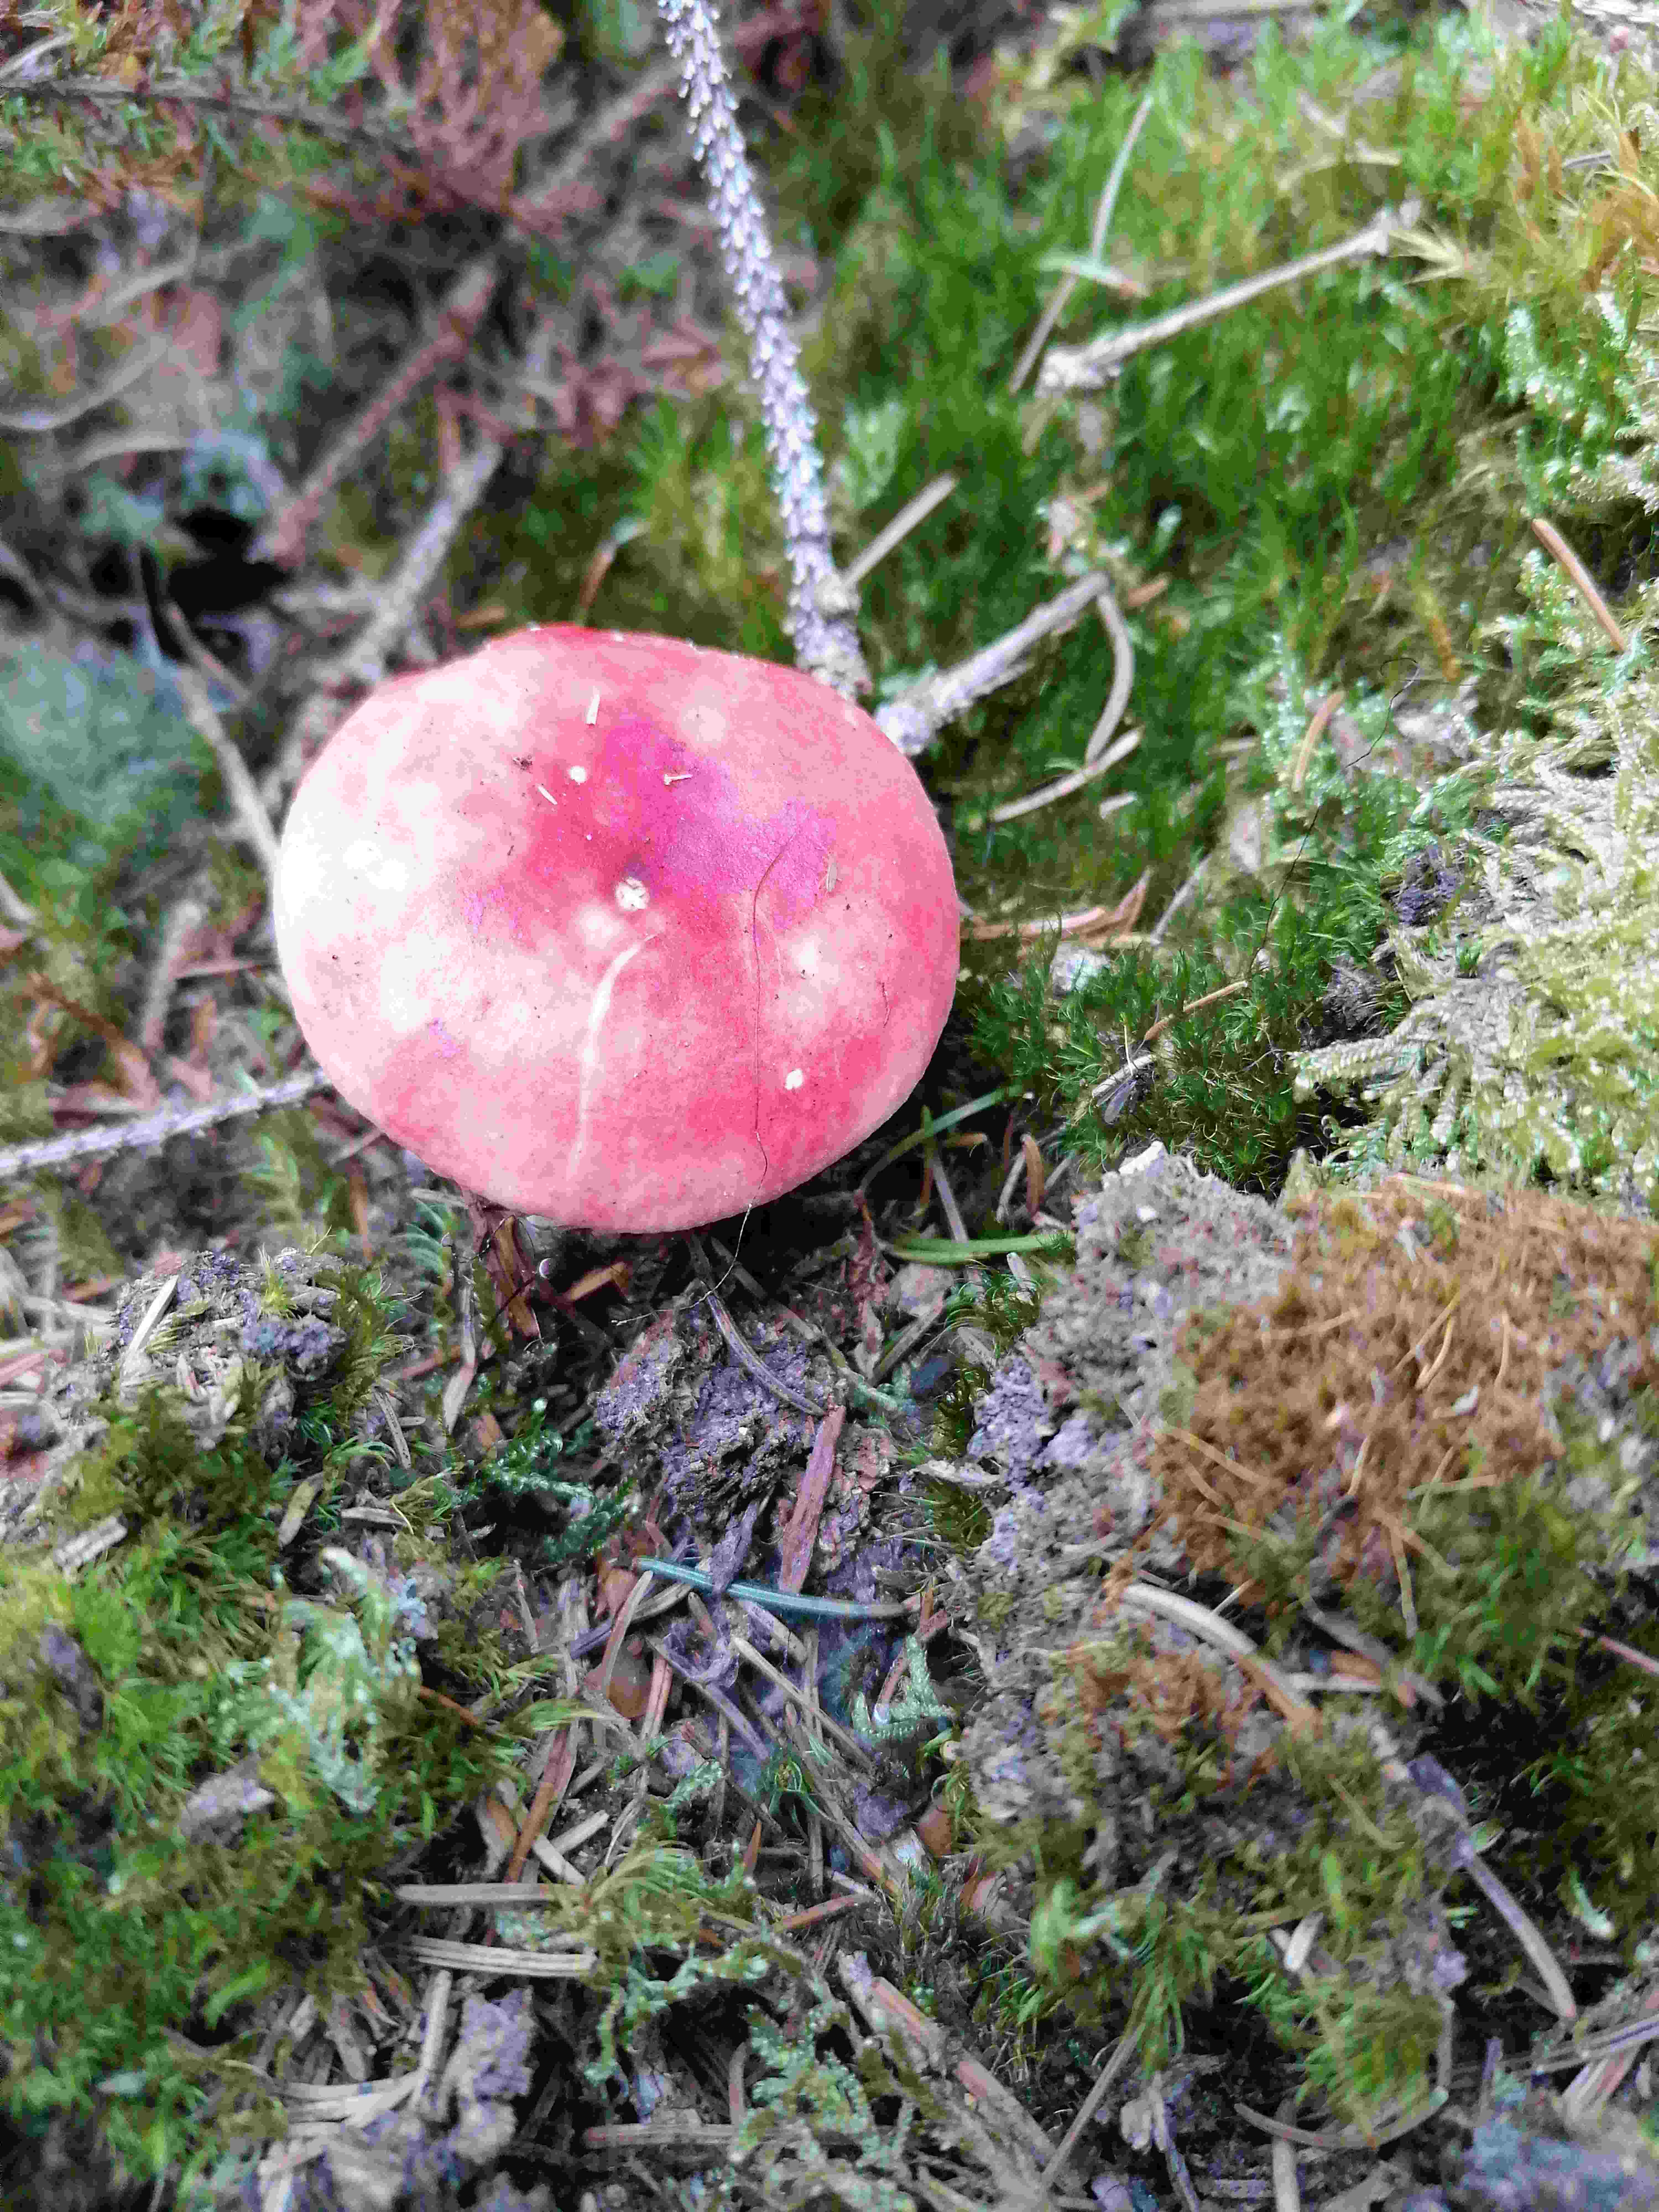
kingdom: Fungi
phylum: Basidiomycota
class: Agaricomycetes
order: Russulales
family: Russulaceae
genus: Russula
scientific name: Russula emetica
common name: stor gift-skørhat
